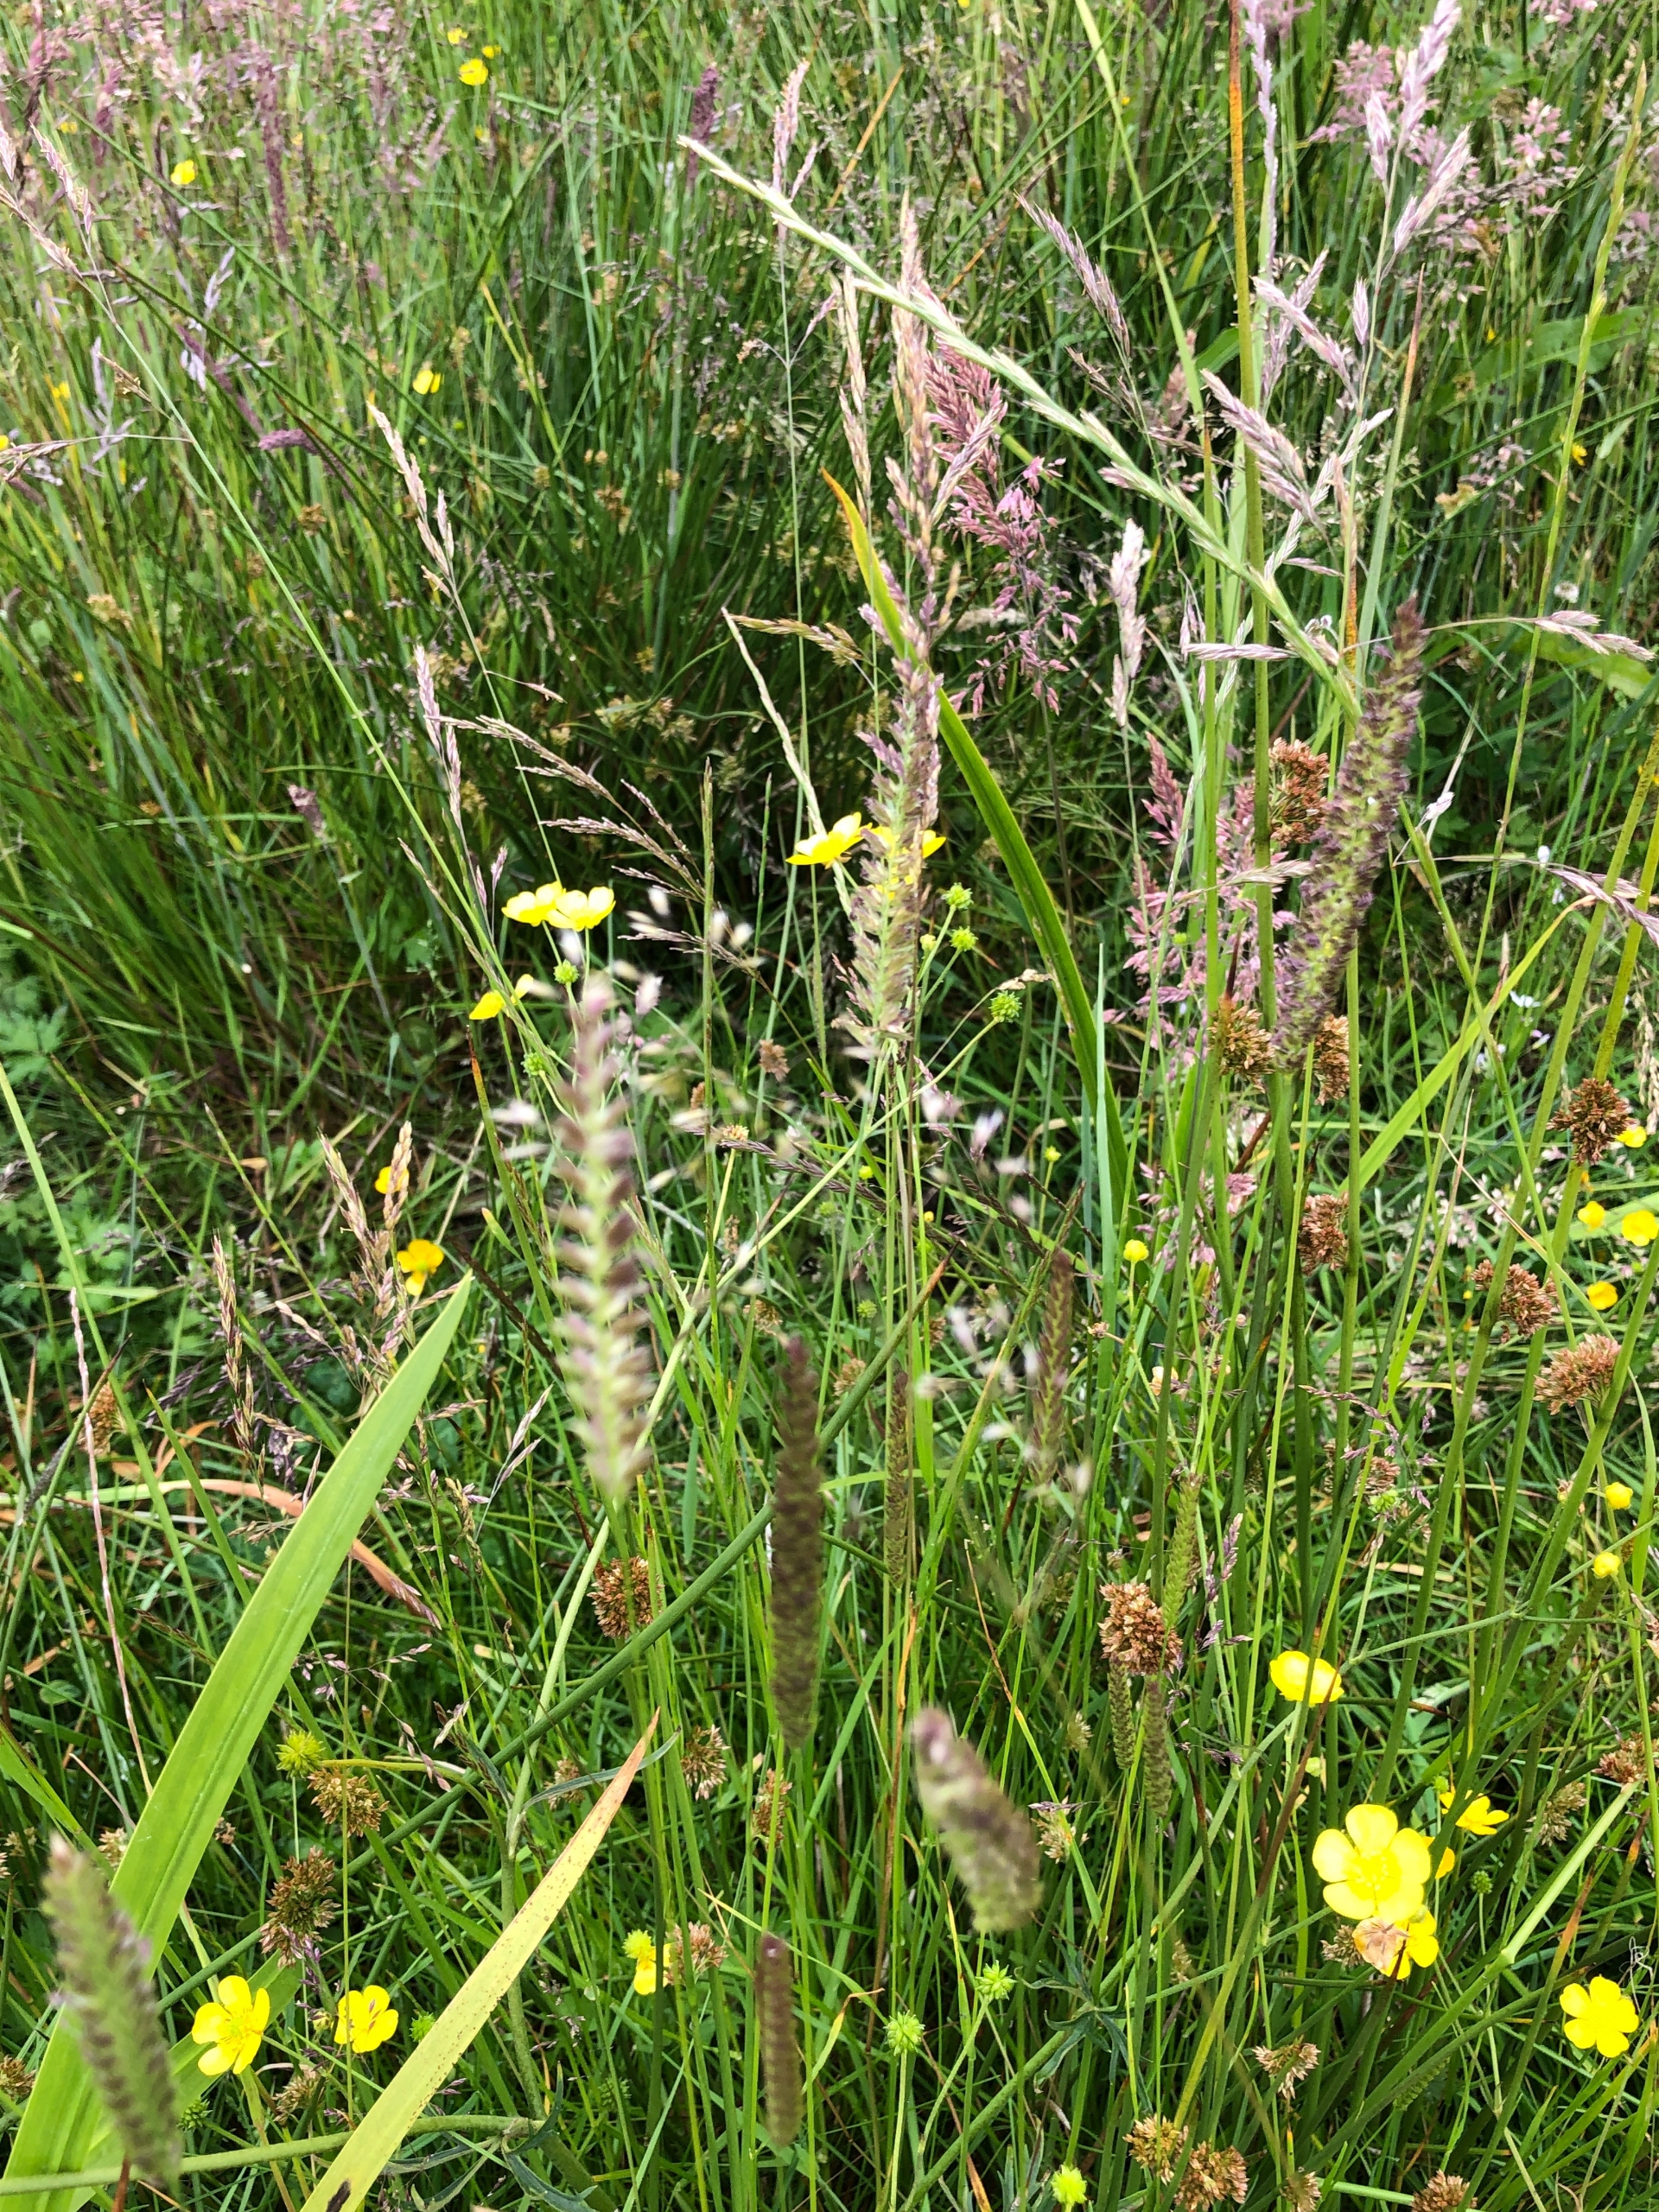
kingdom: Plantae
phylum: Tracheophyta
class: Liliopsida
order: Poales
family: Poaceae
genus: Cynosurus
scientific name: Cynosurus cristatus
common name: Kamgræs
